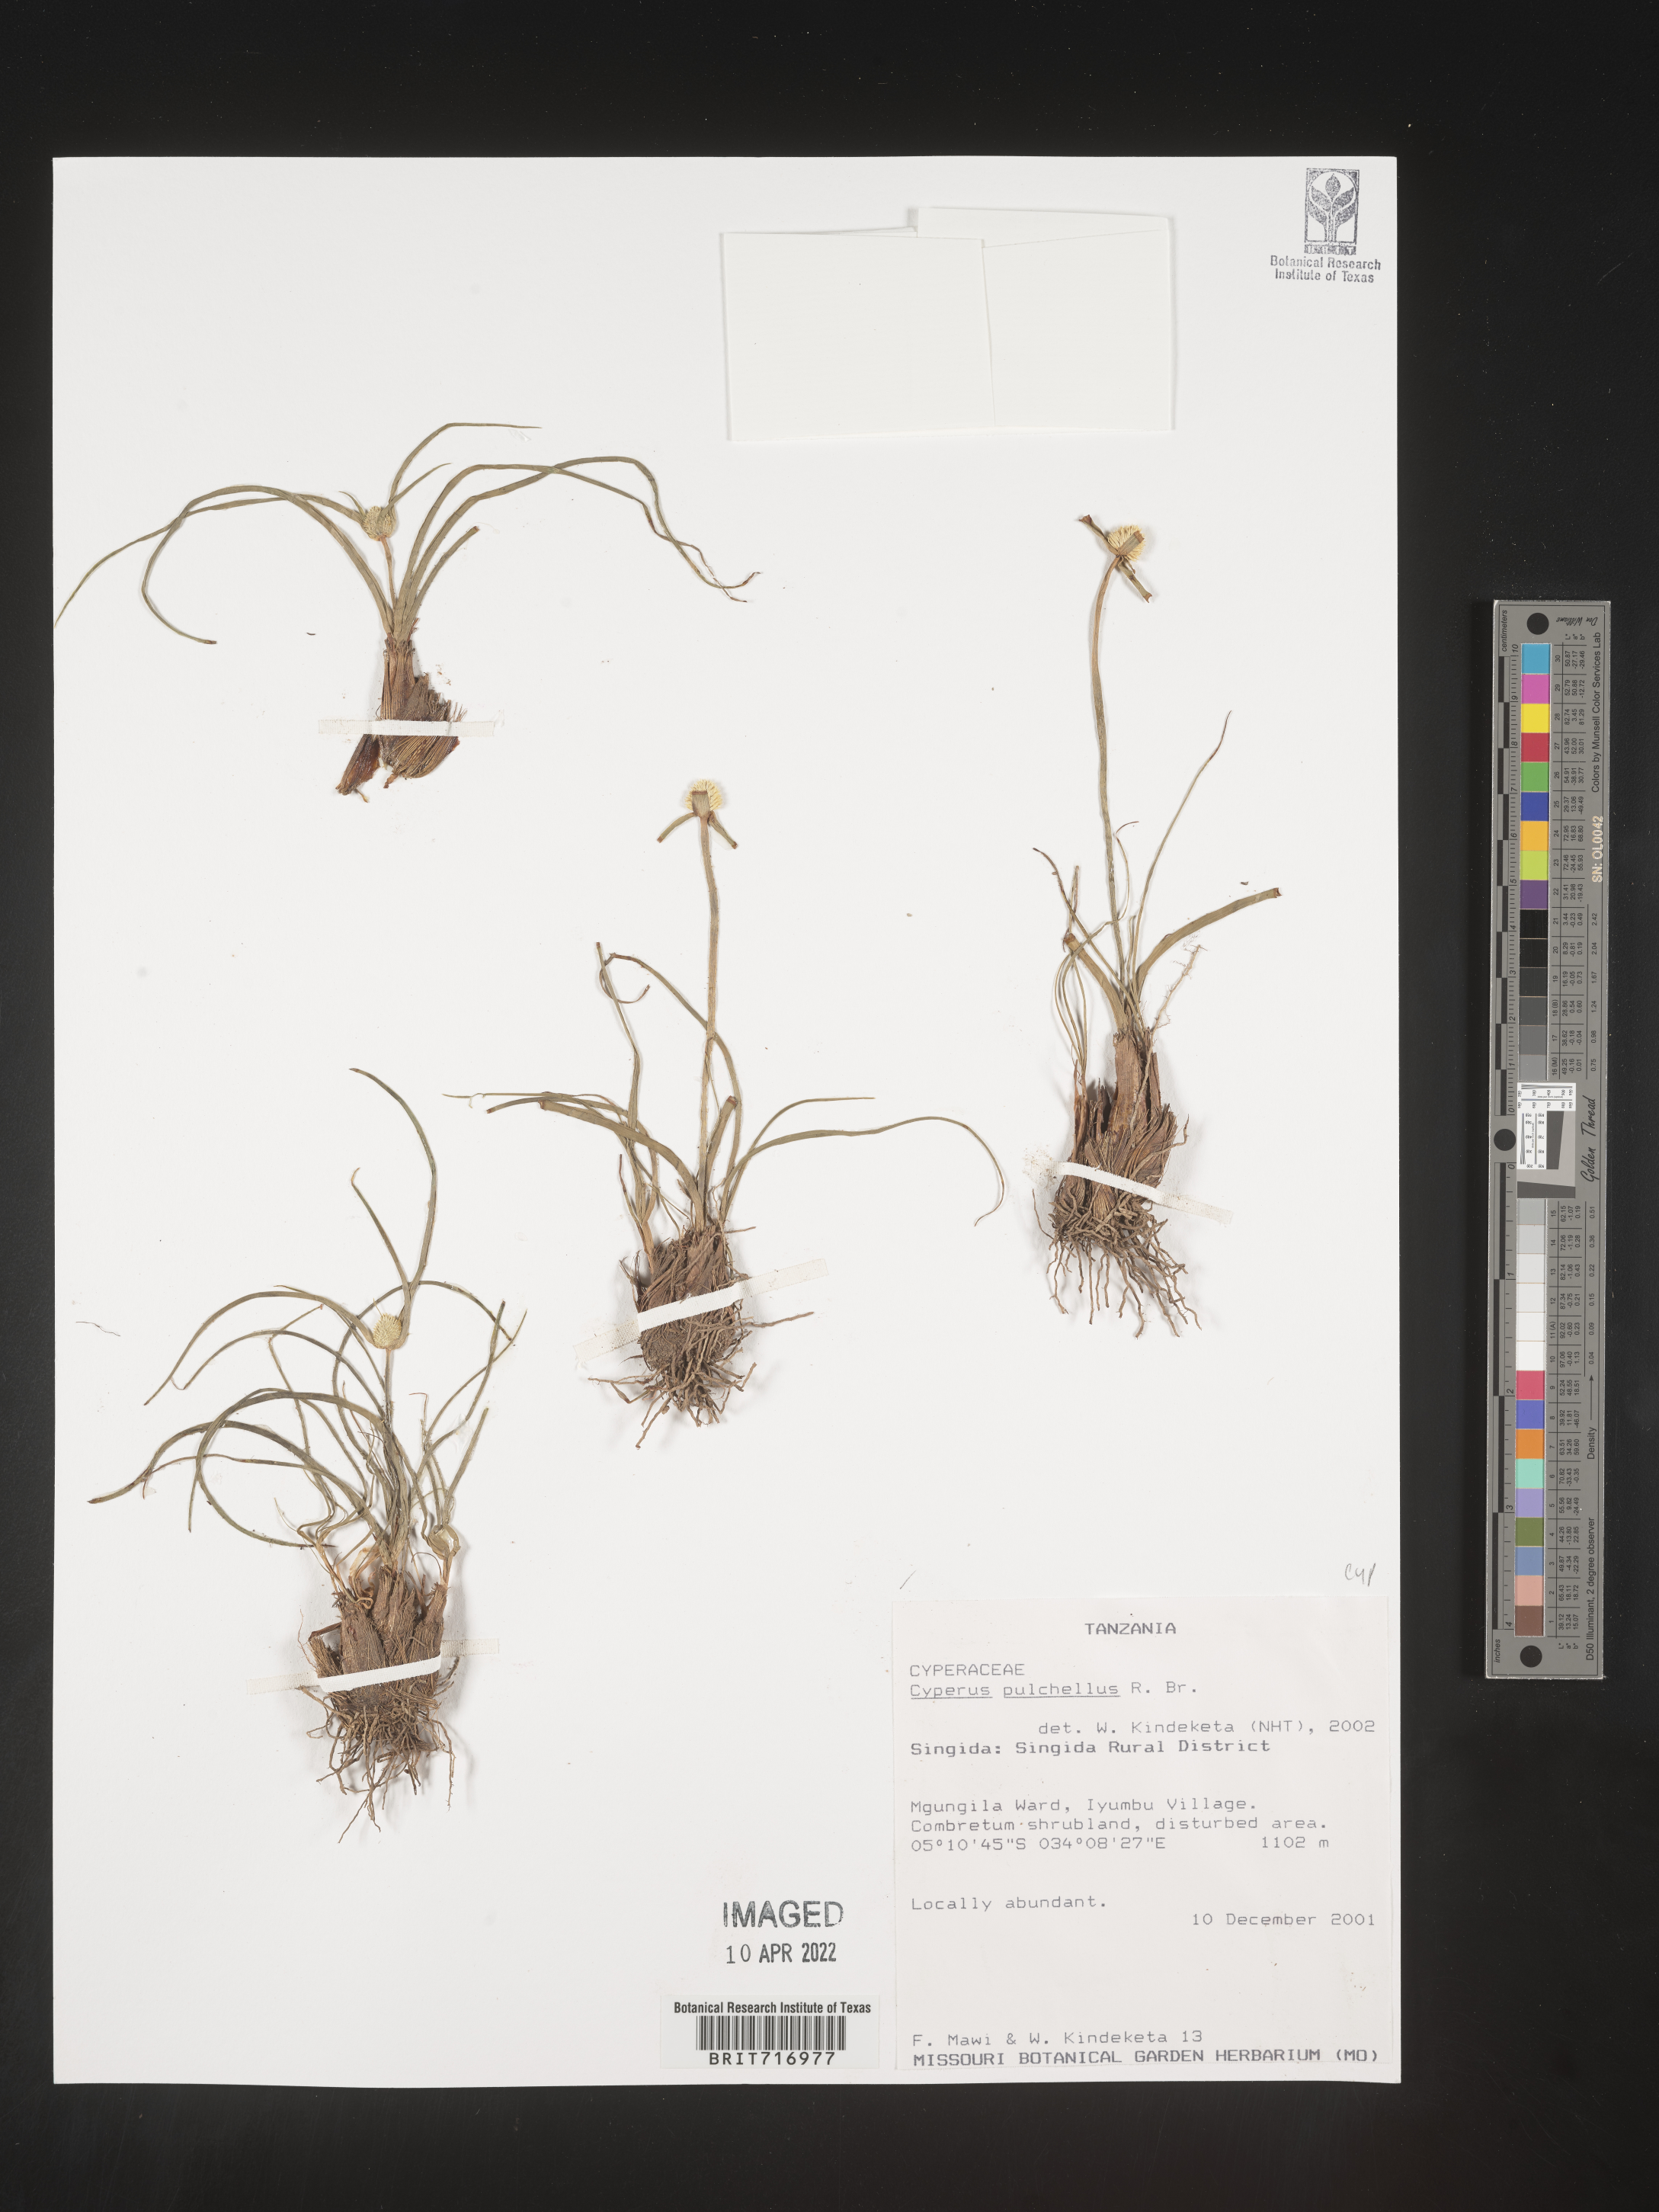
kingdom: Plantae
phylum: Tracheophyta
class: Liliopsida
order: Poales
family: Cyperaceae
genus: Cyperus
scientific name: Cyperus
